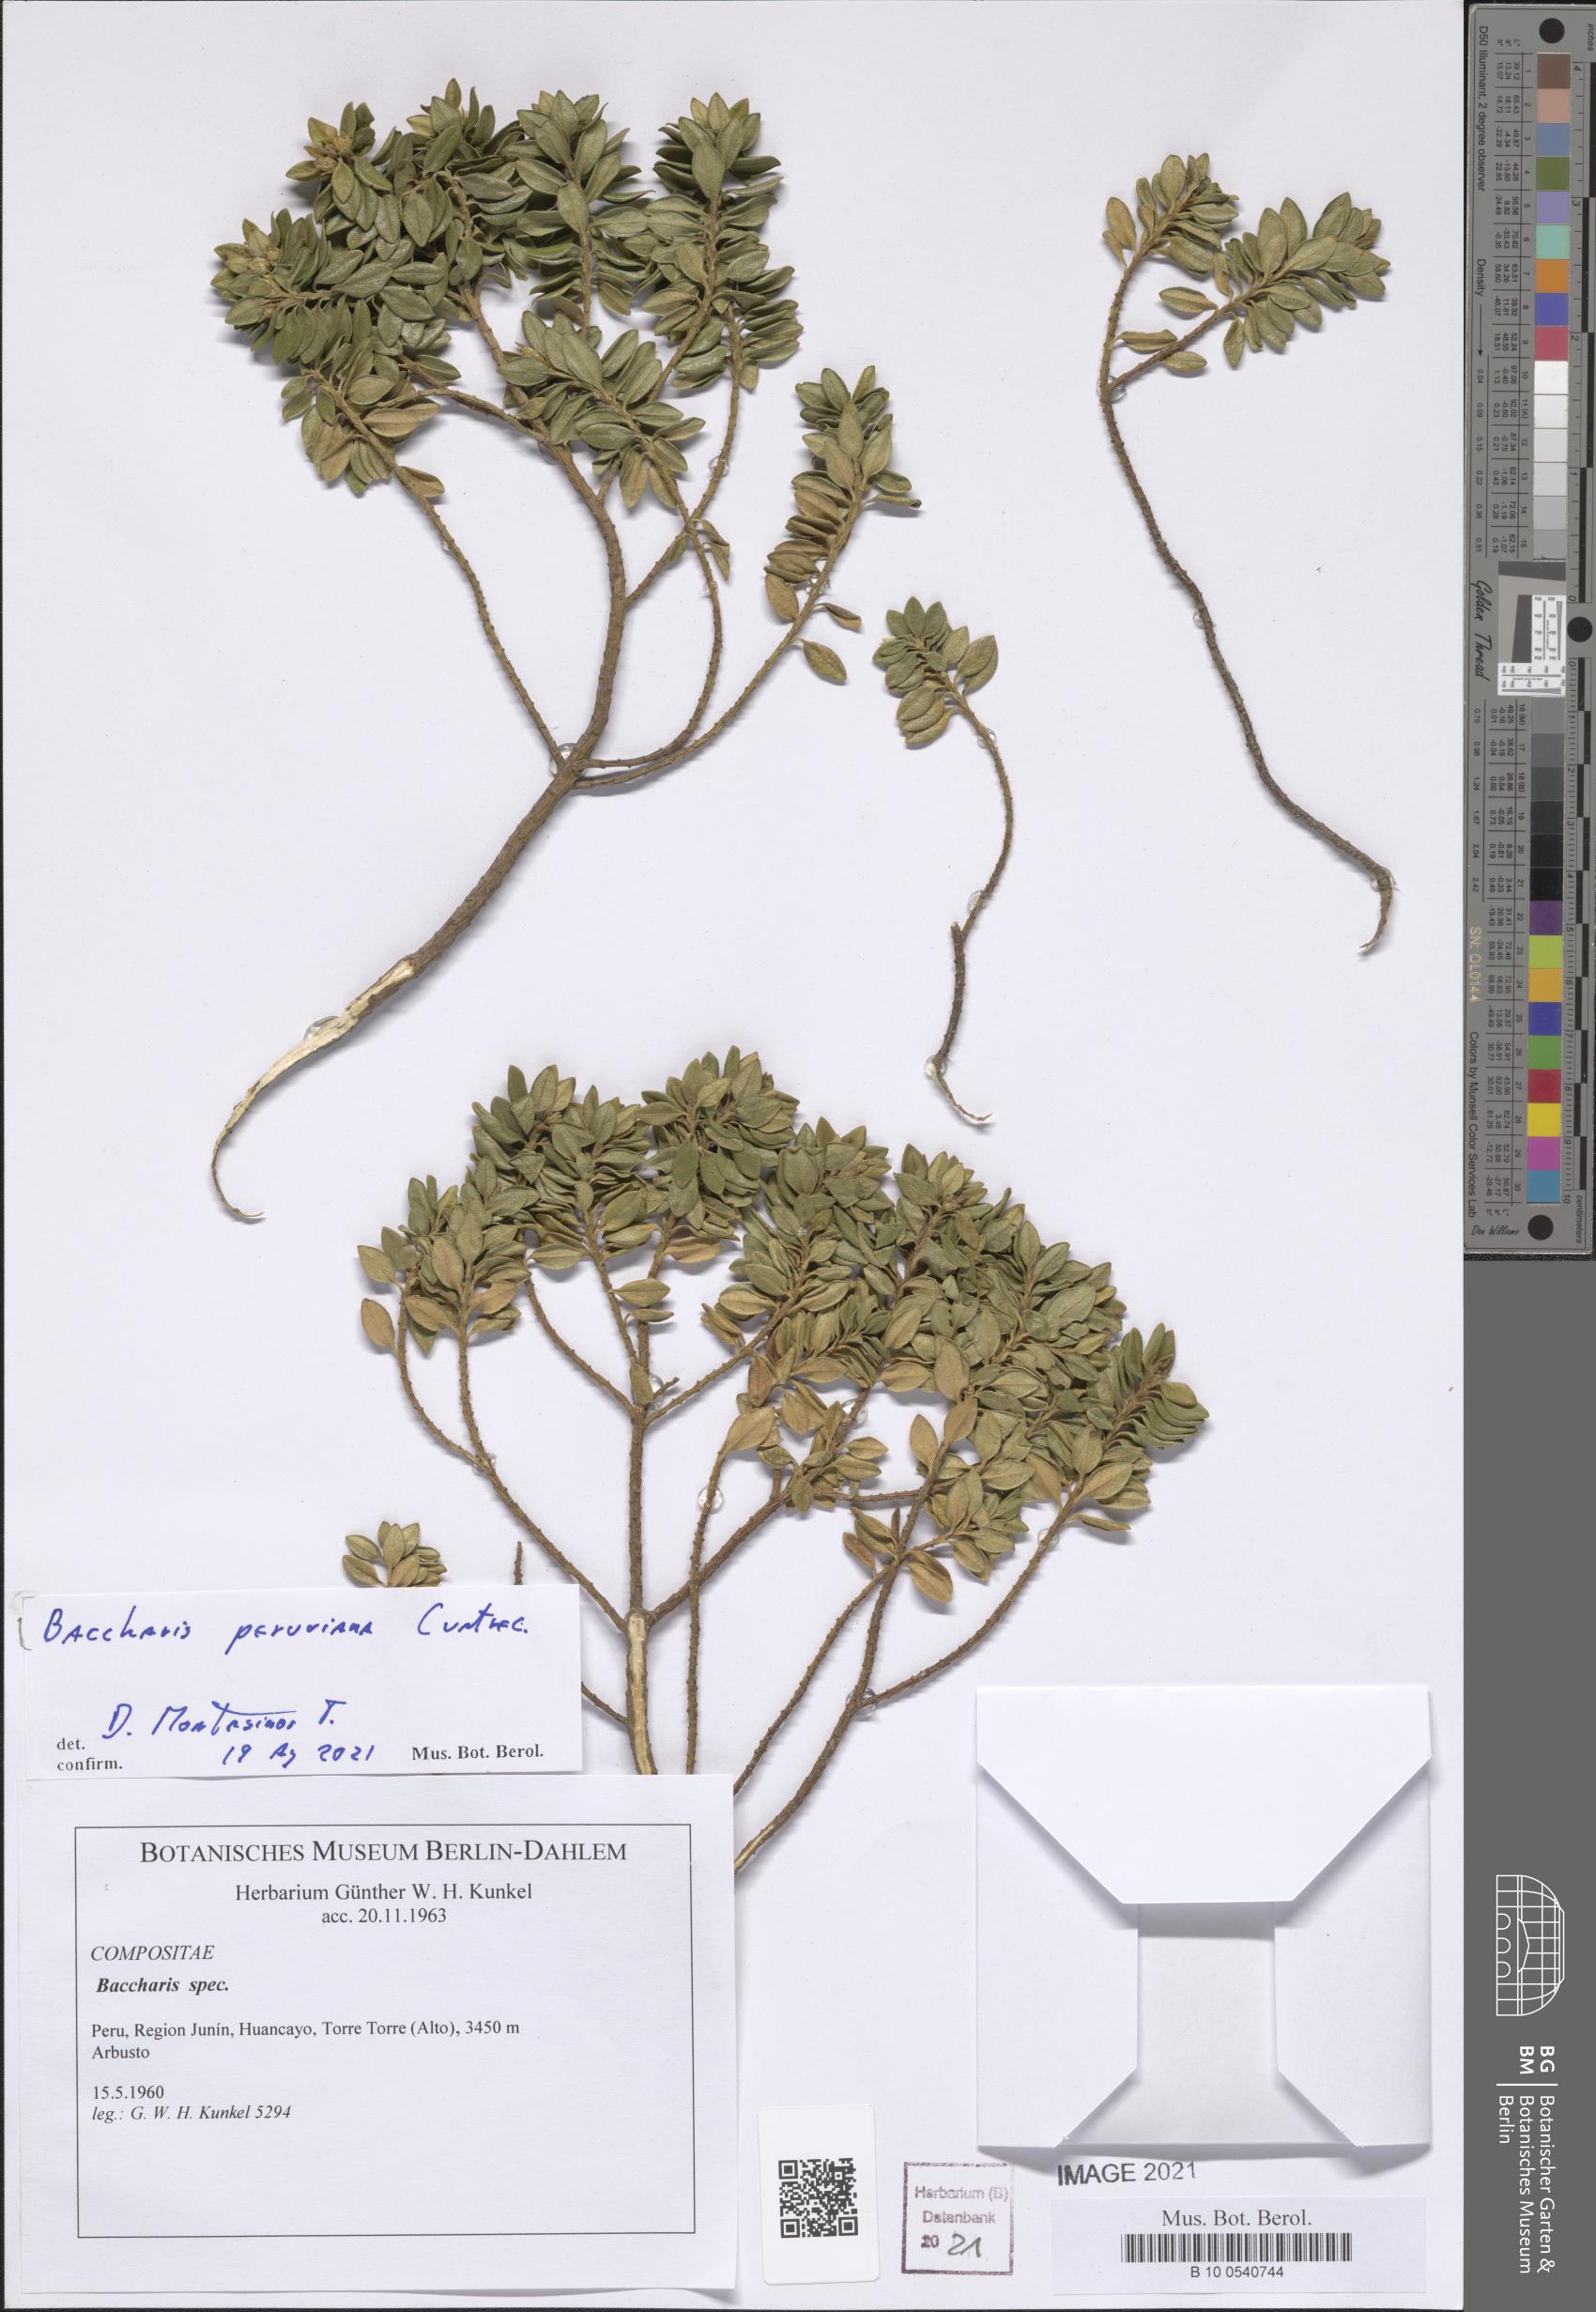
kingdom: Plantae
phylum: Tracheophyta
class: Magnoliopsida
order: Asterales
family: Asteraceae
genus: Baccharis
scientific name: Baccharis peruviana
